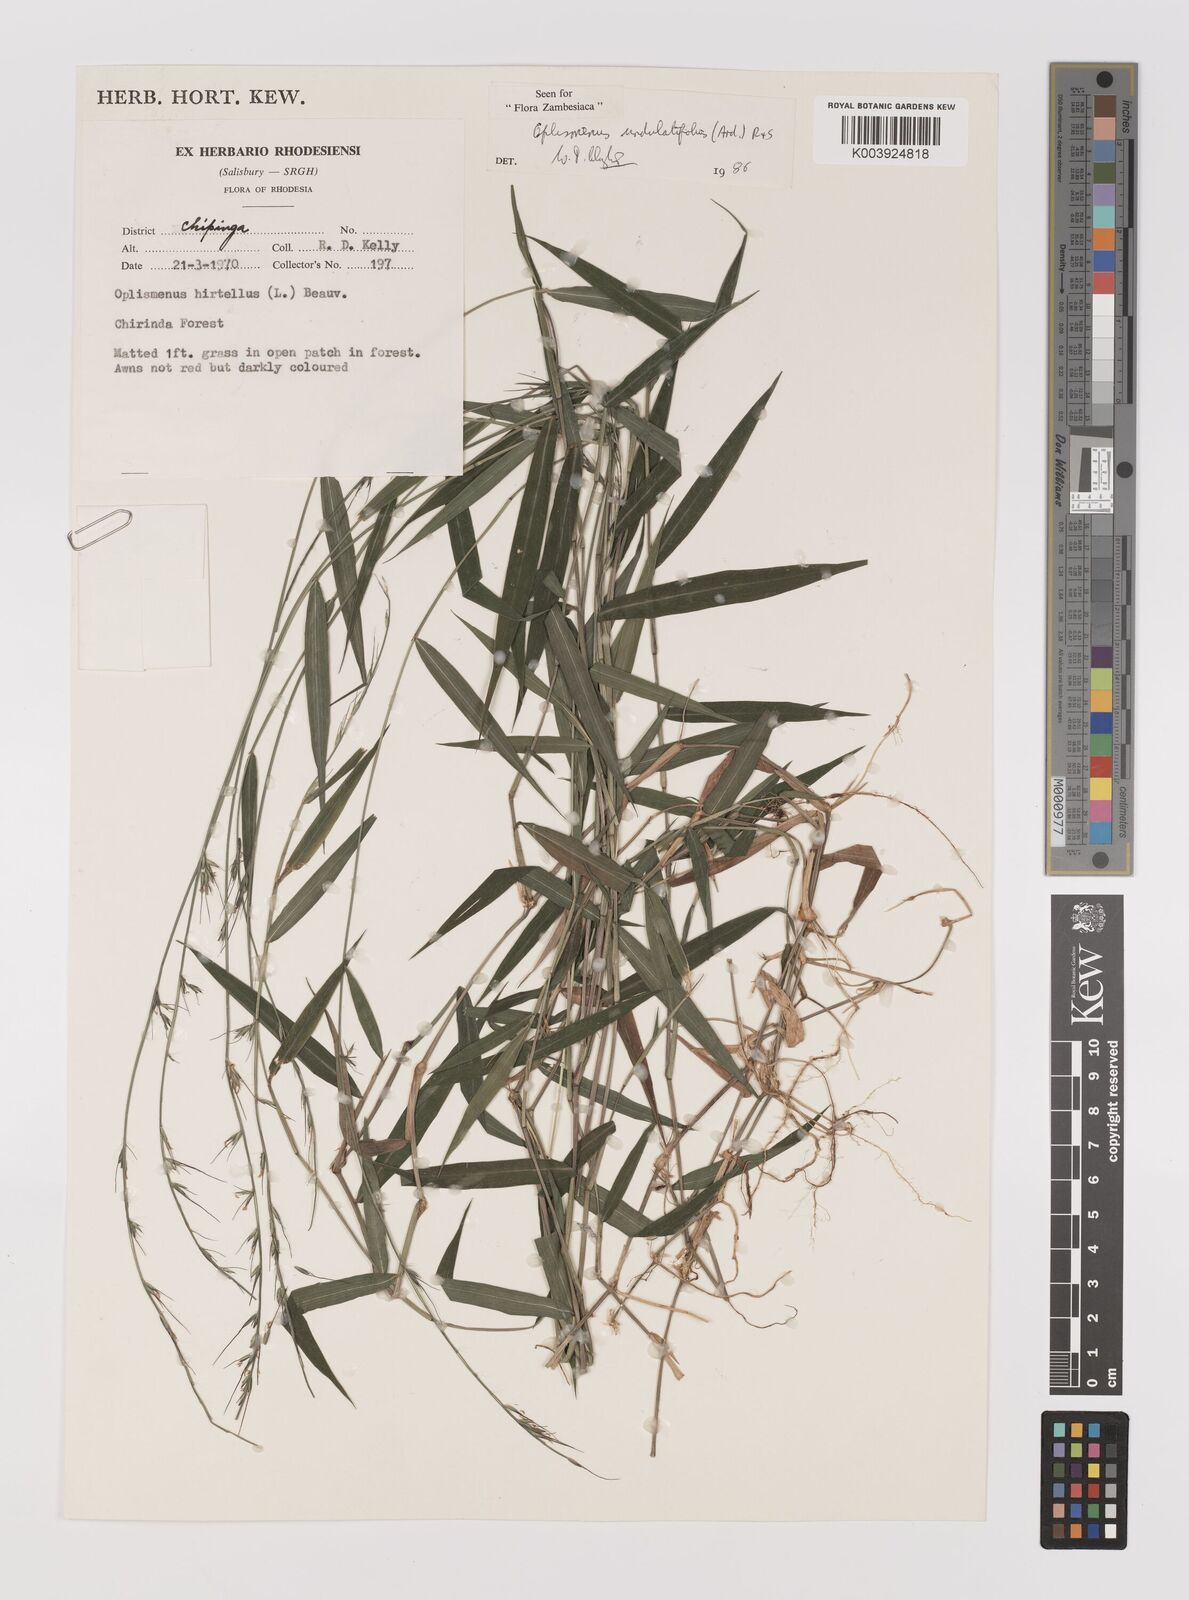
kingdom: Plantae
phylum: Tracheophyta
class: Liliopsida
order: Poales
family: Poaceae
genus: Oplismenus
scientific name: Oplismenus undulatifolius
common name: Wavyleaf basketgrass
